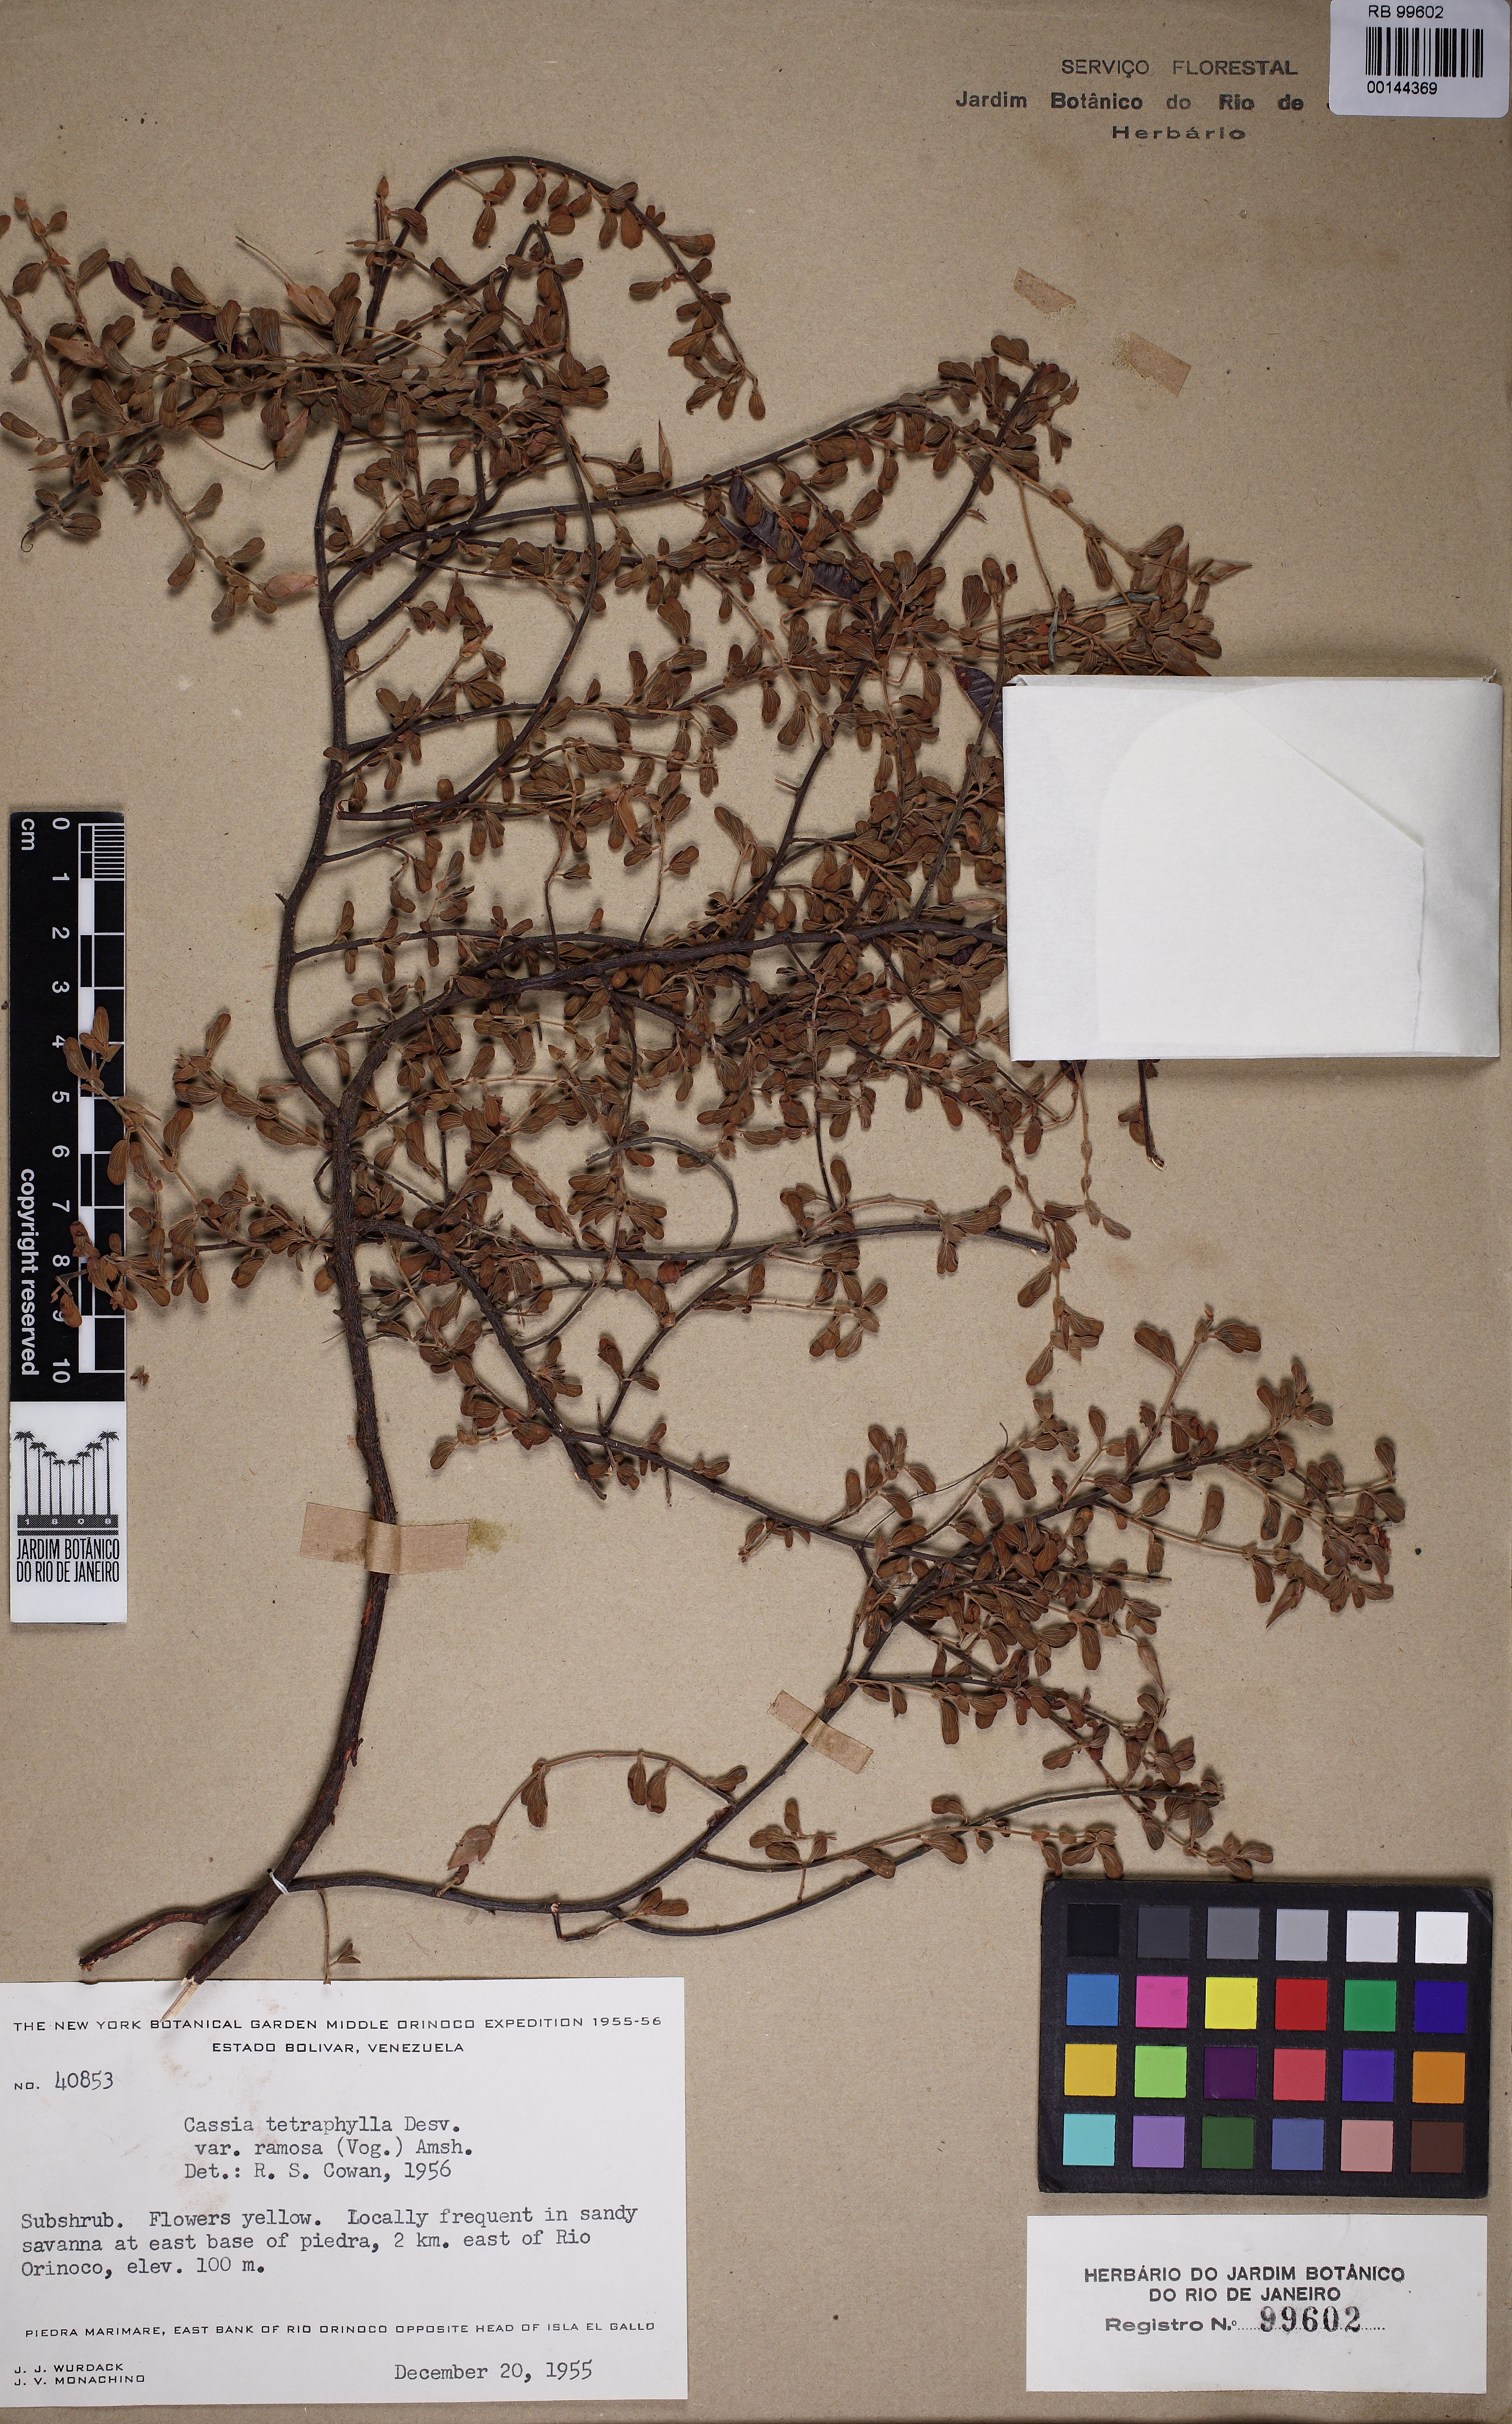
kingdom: Plantae
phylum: Tracheophyta
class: Magnoliopsida
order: Fabales
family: Fabaceae
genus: Chamaecrista
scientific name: Chamaecrista desvauxii
